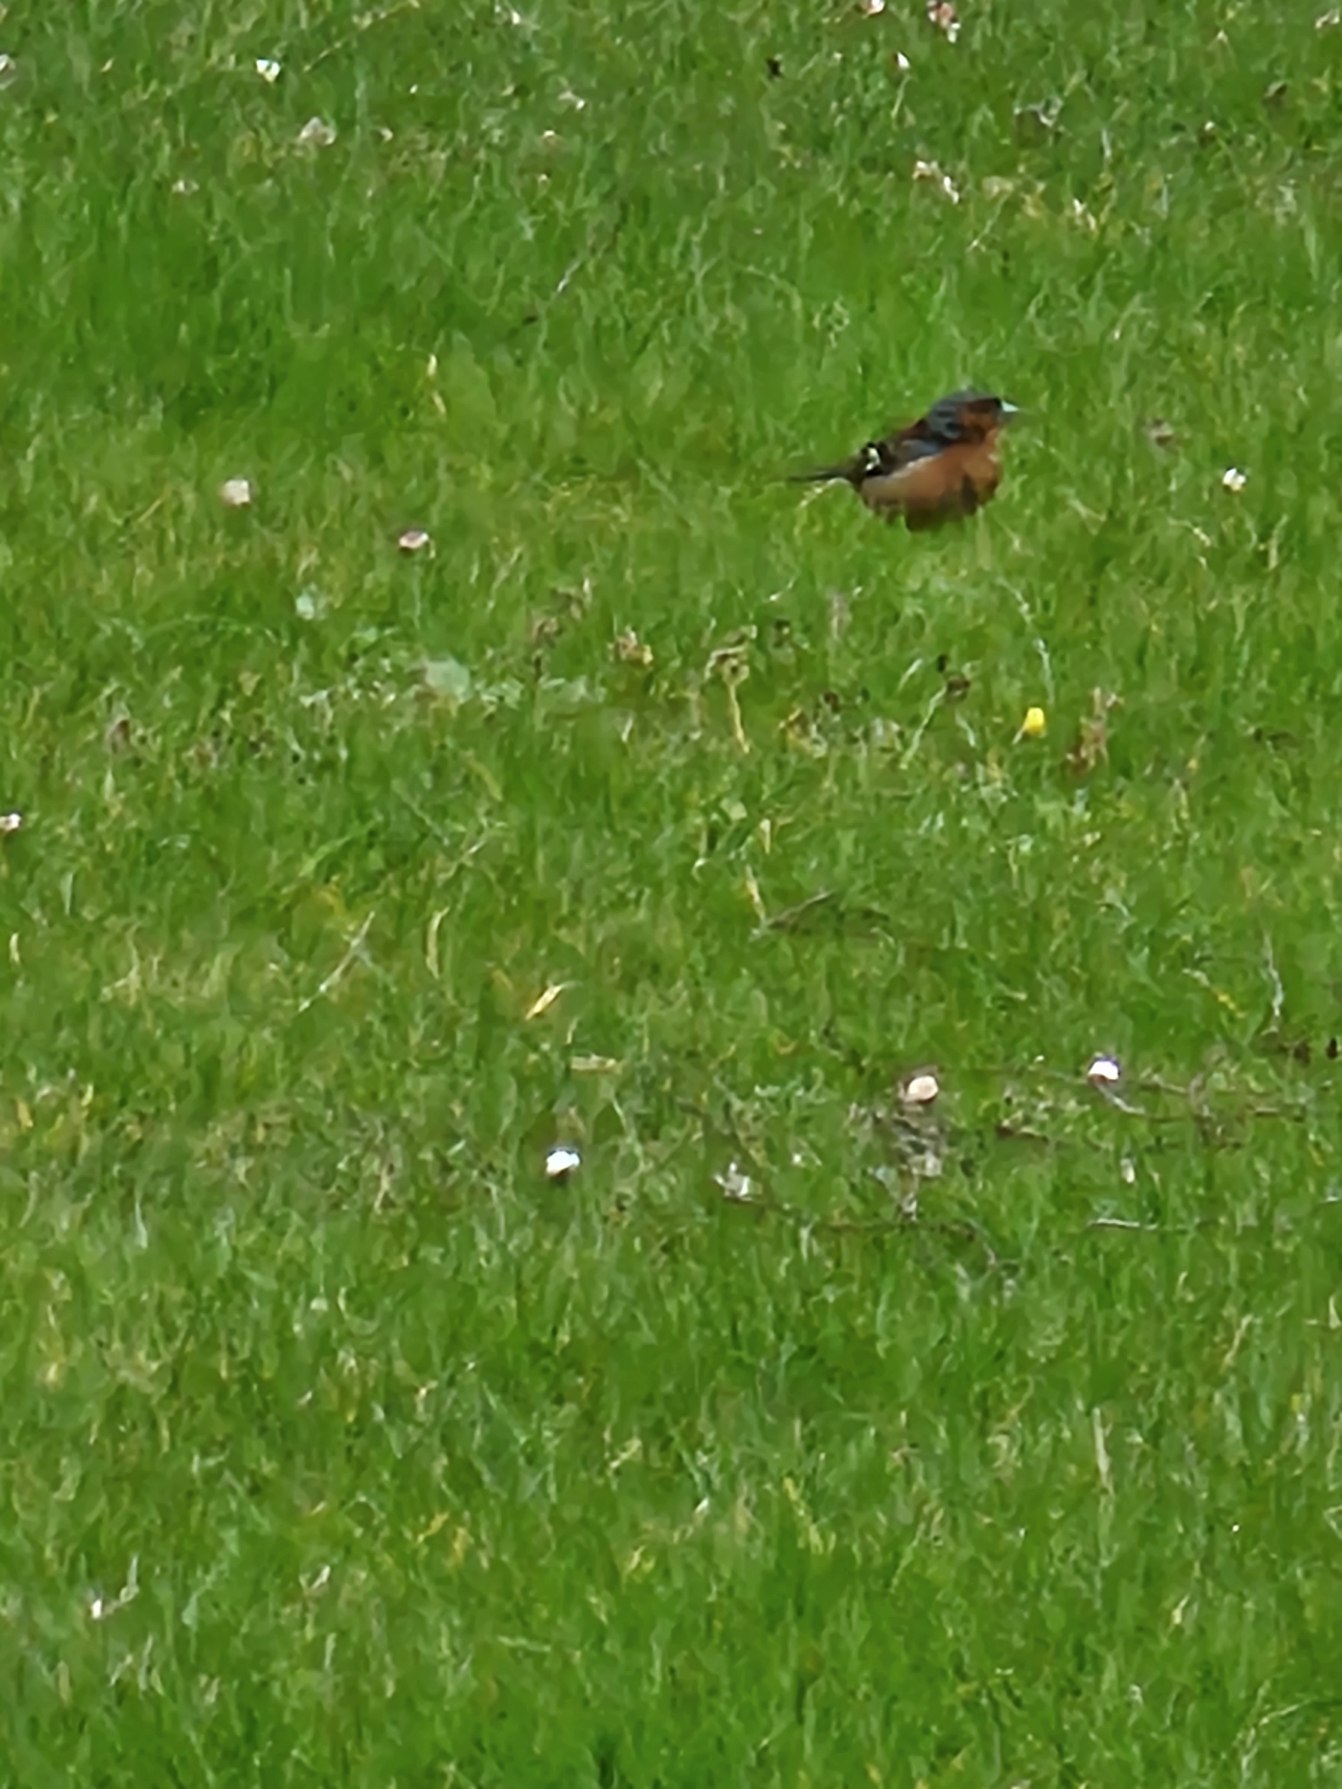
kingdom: Animalia
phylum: Chordata
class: Aves
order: Passeriformes
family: Fringillidae
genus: Fringilla
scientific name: Fringilla coelebs
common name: Bogfinke
